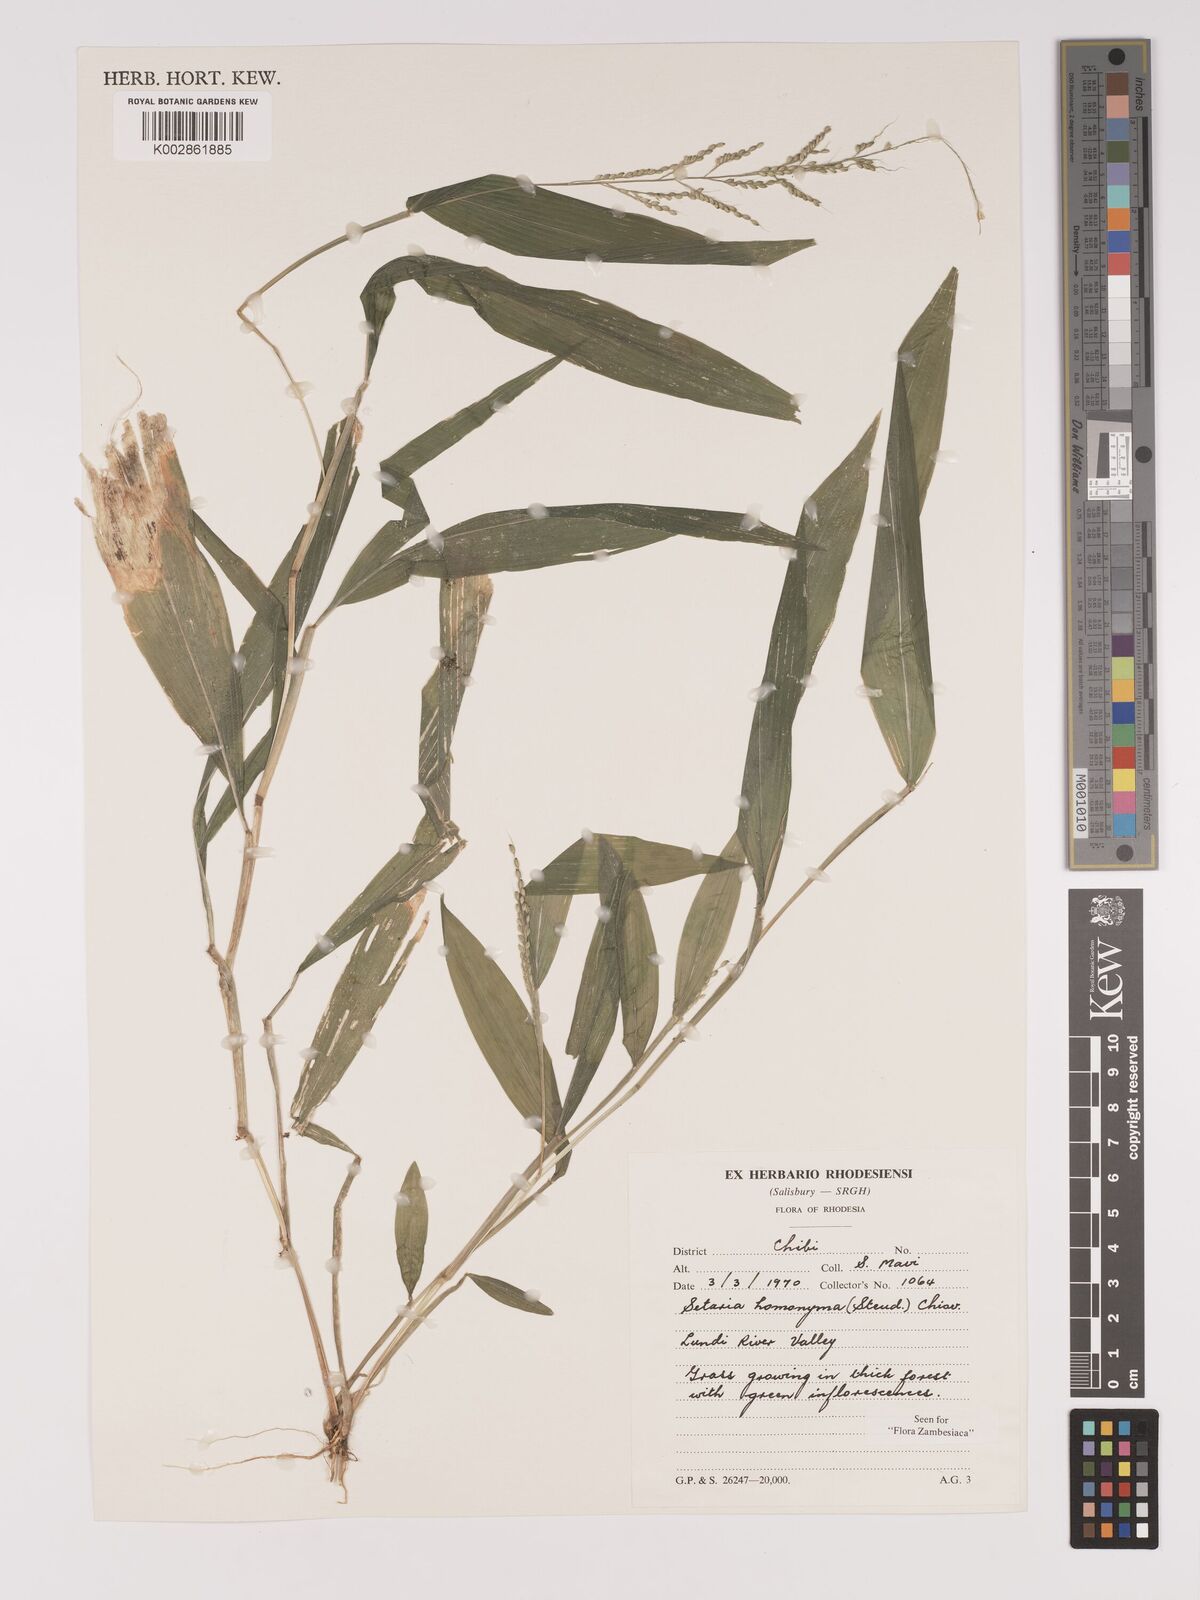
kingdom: Plantae
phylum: Tracheophyta
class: Liliopsida
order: Poales
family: Poaceae
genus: Setaria
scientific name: Setaria homonyma
